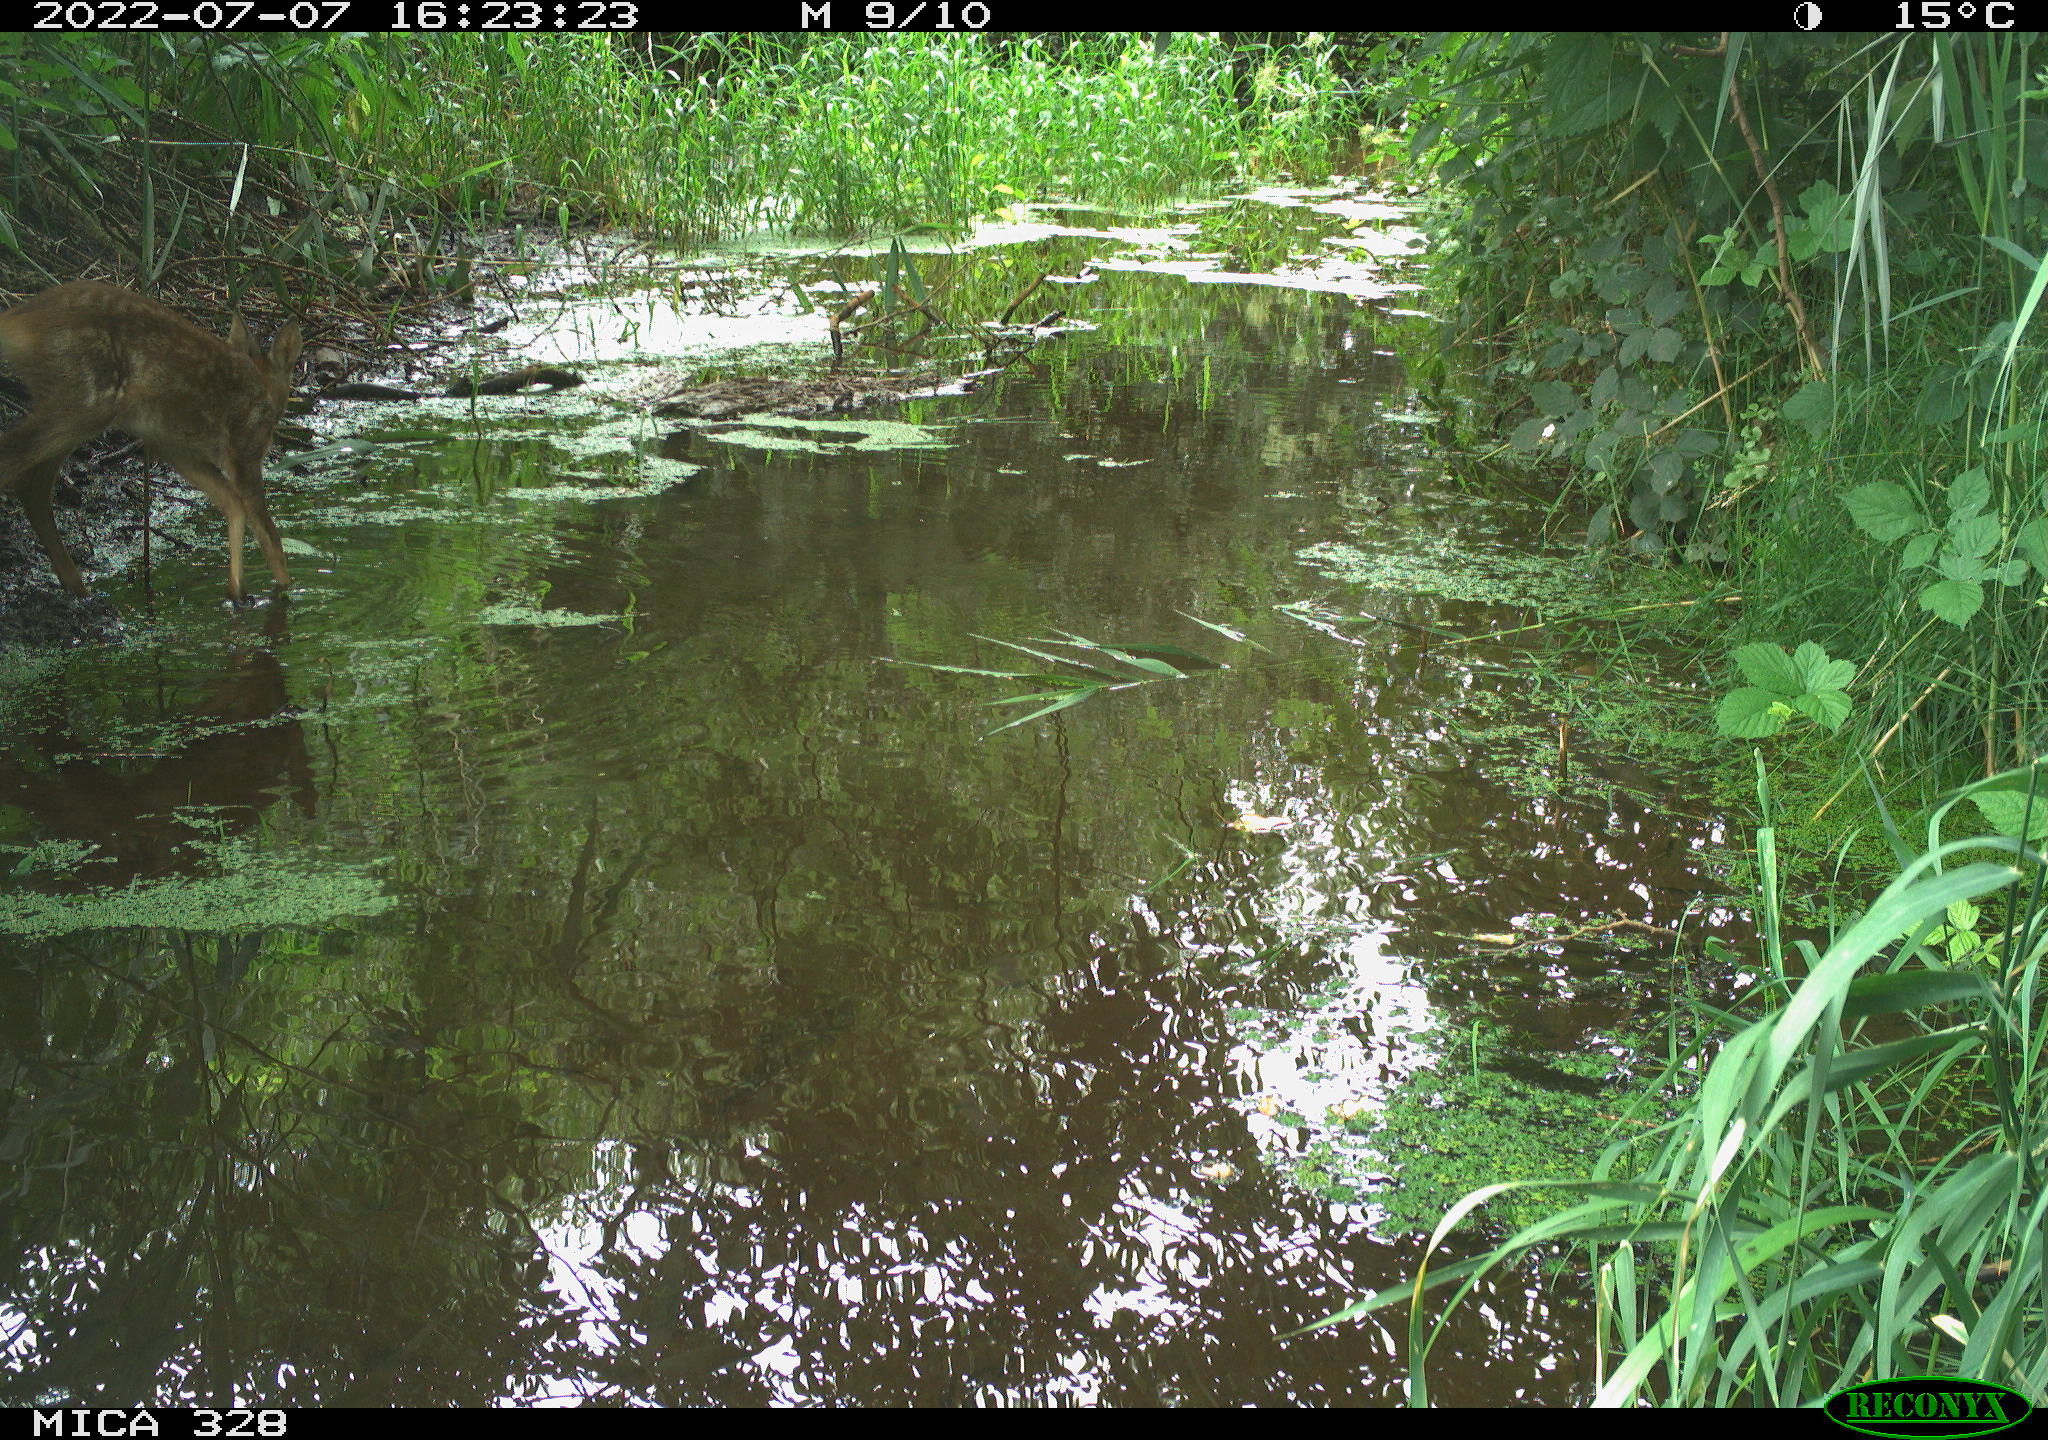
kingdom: Animalia
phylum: Chordata
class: Mammalia
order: Artiodactyla
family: Cervidae
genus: Capreolus
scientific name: Capreolus capreolus
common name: Western roe deer
